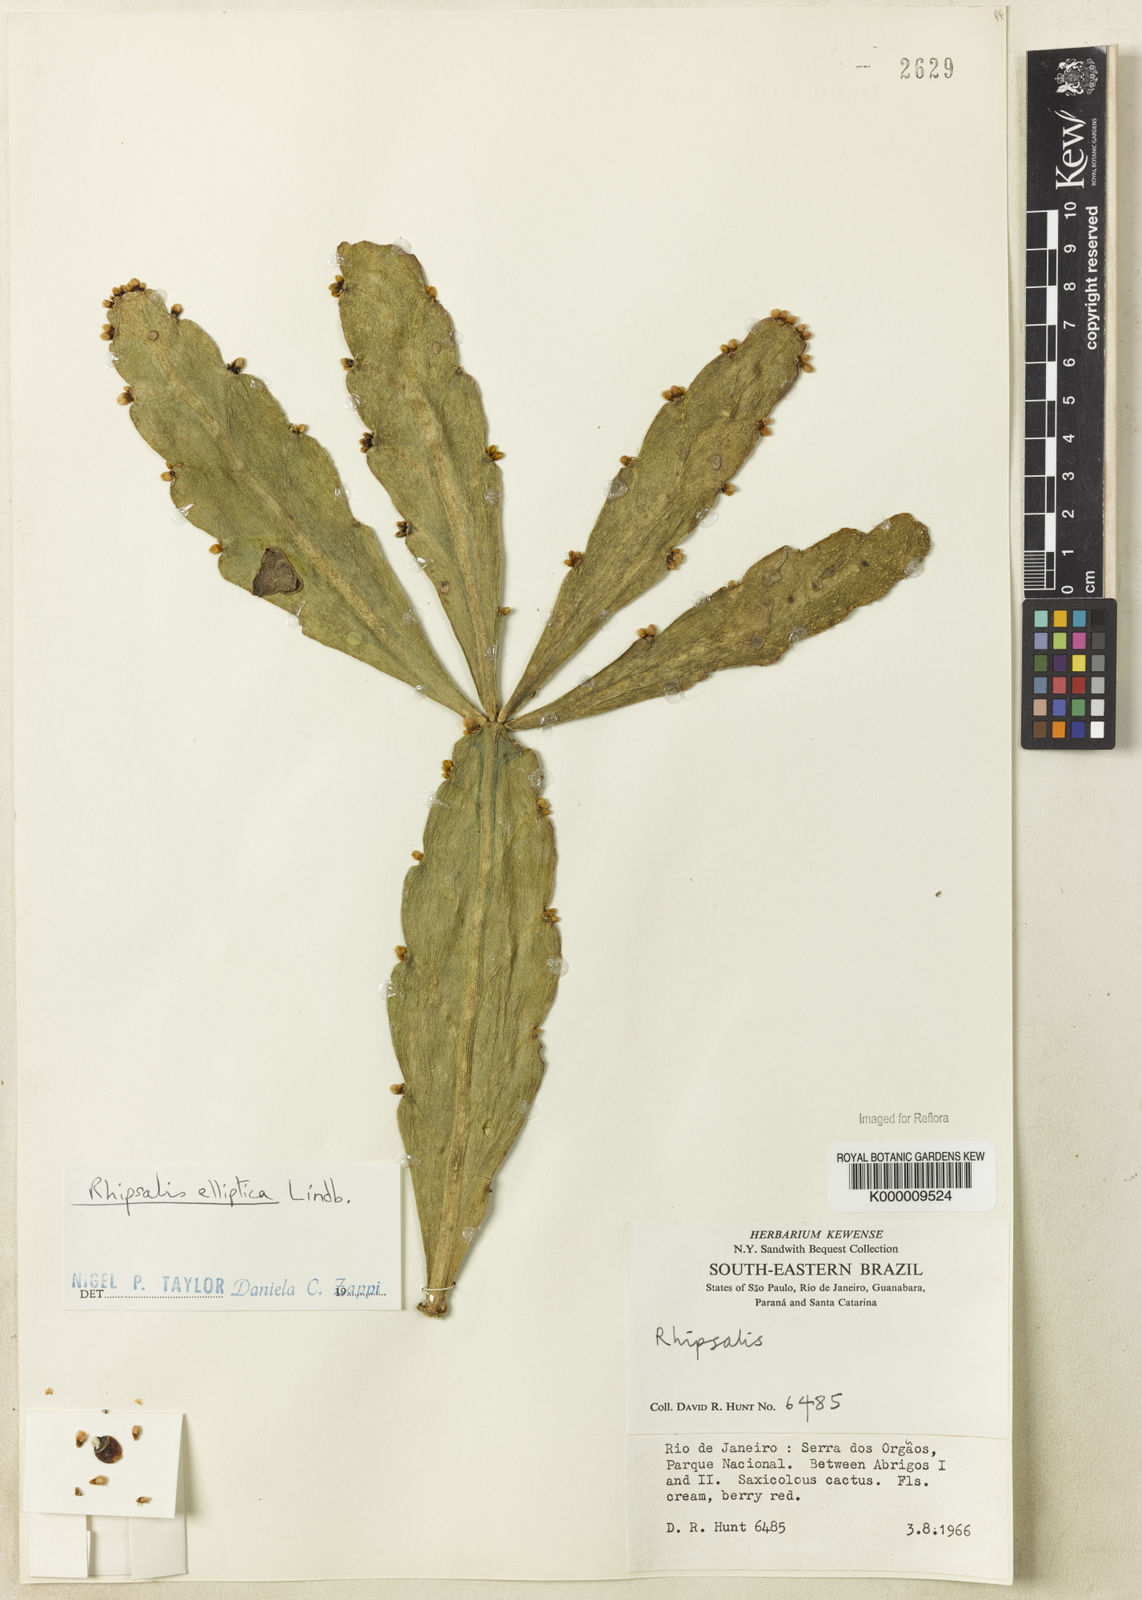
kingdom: Plantae
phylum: Tracheophyta
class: Magnoliopsida
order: Caryophyllales
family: Cactaceae
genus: Rhipsalis
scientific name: Rhipsalis elliptica
